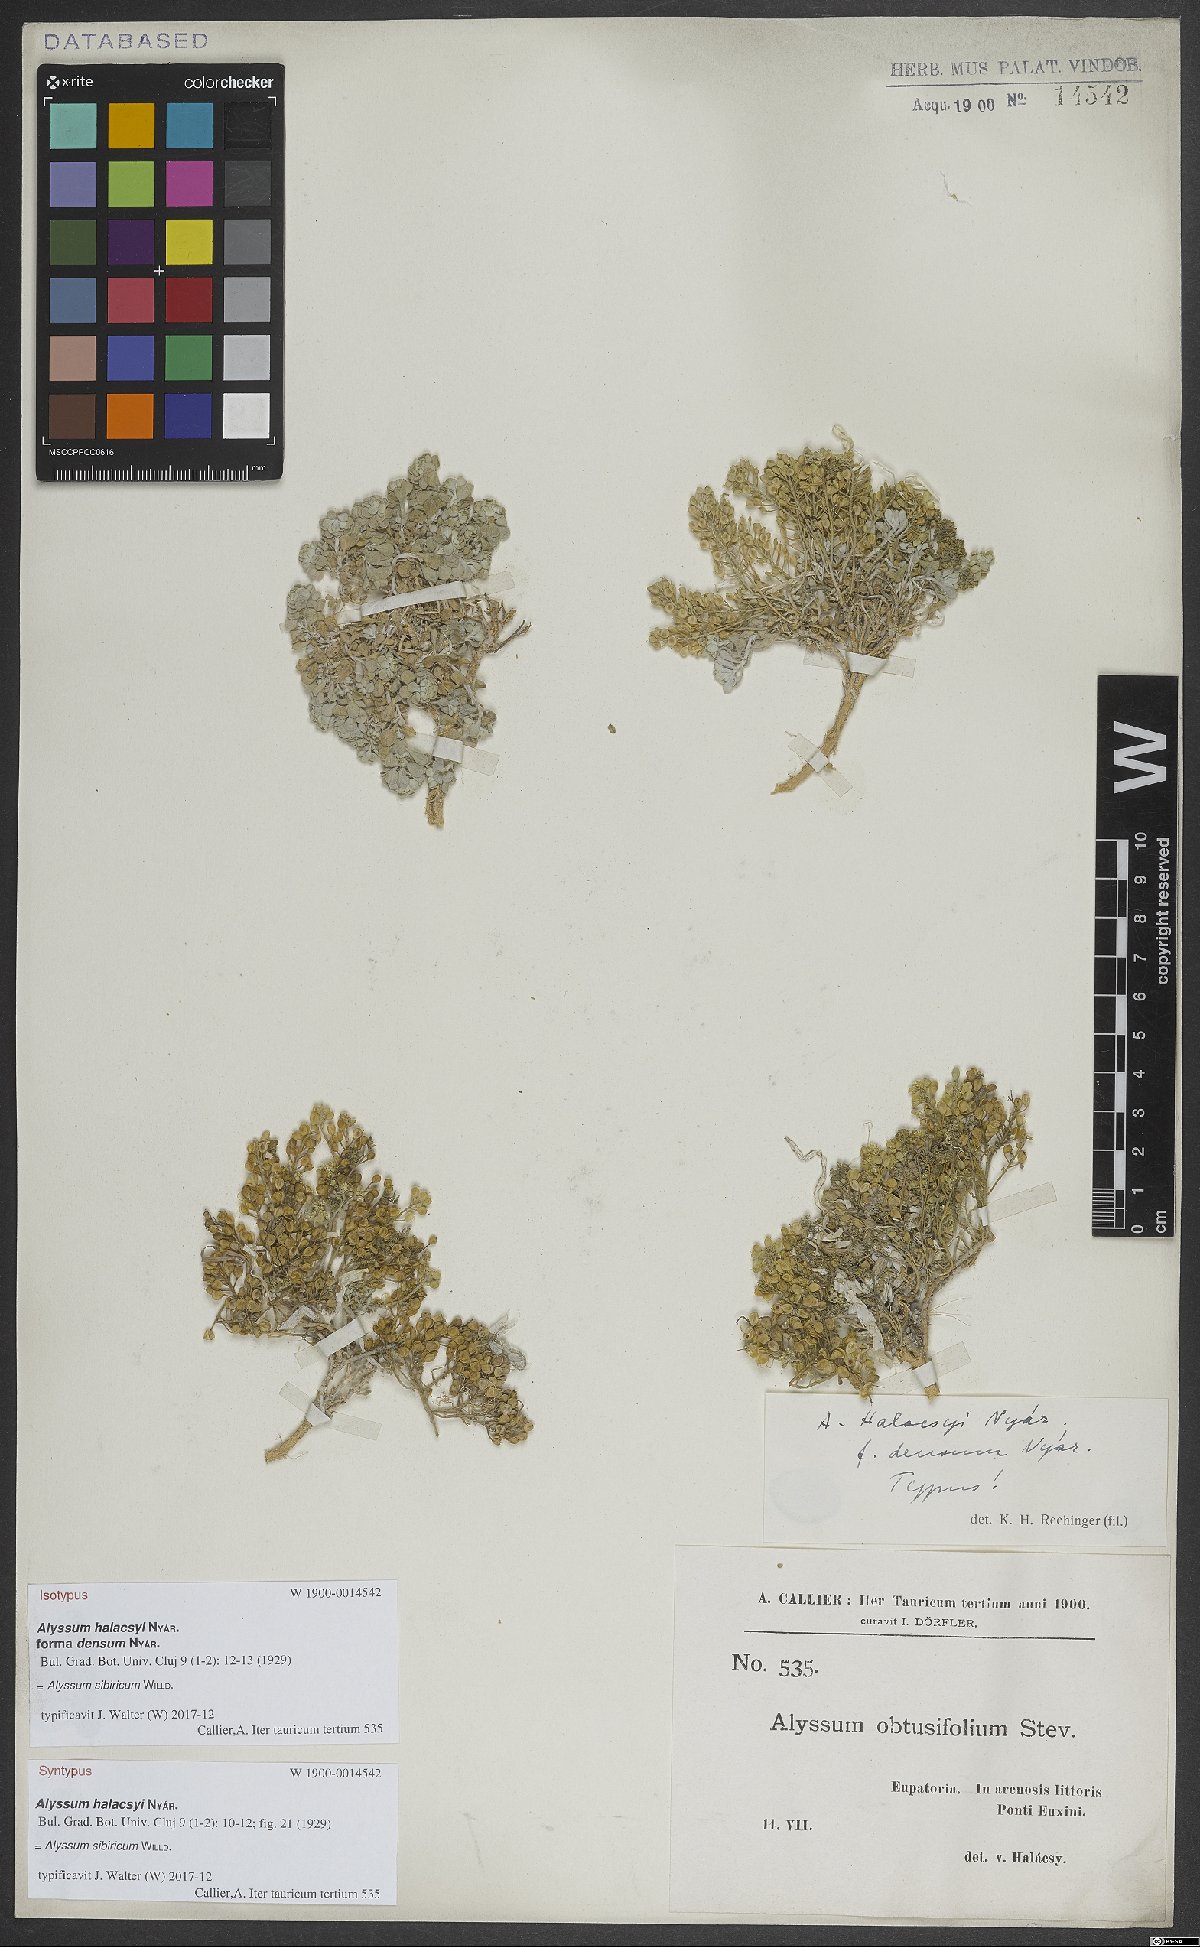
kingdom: Plantae
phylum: Tracheophyta
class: Magnoliopsida
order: Brassicales
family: Brassicaceae
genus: Odontarrhena
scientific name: Odontarrhena sibirica
